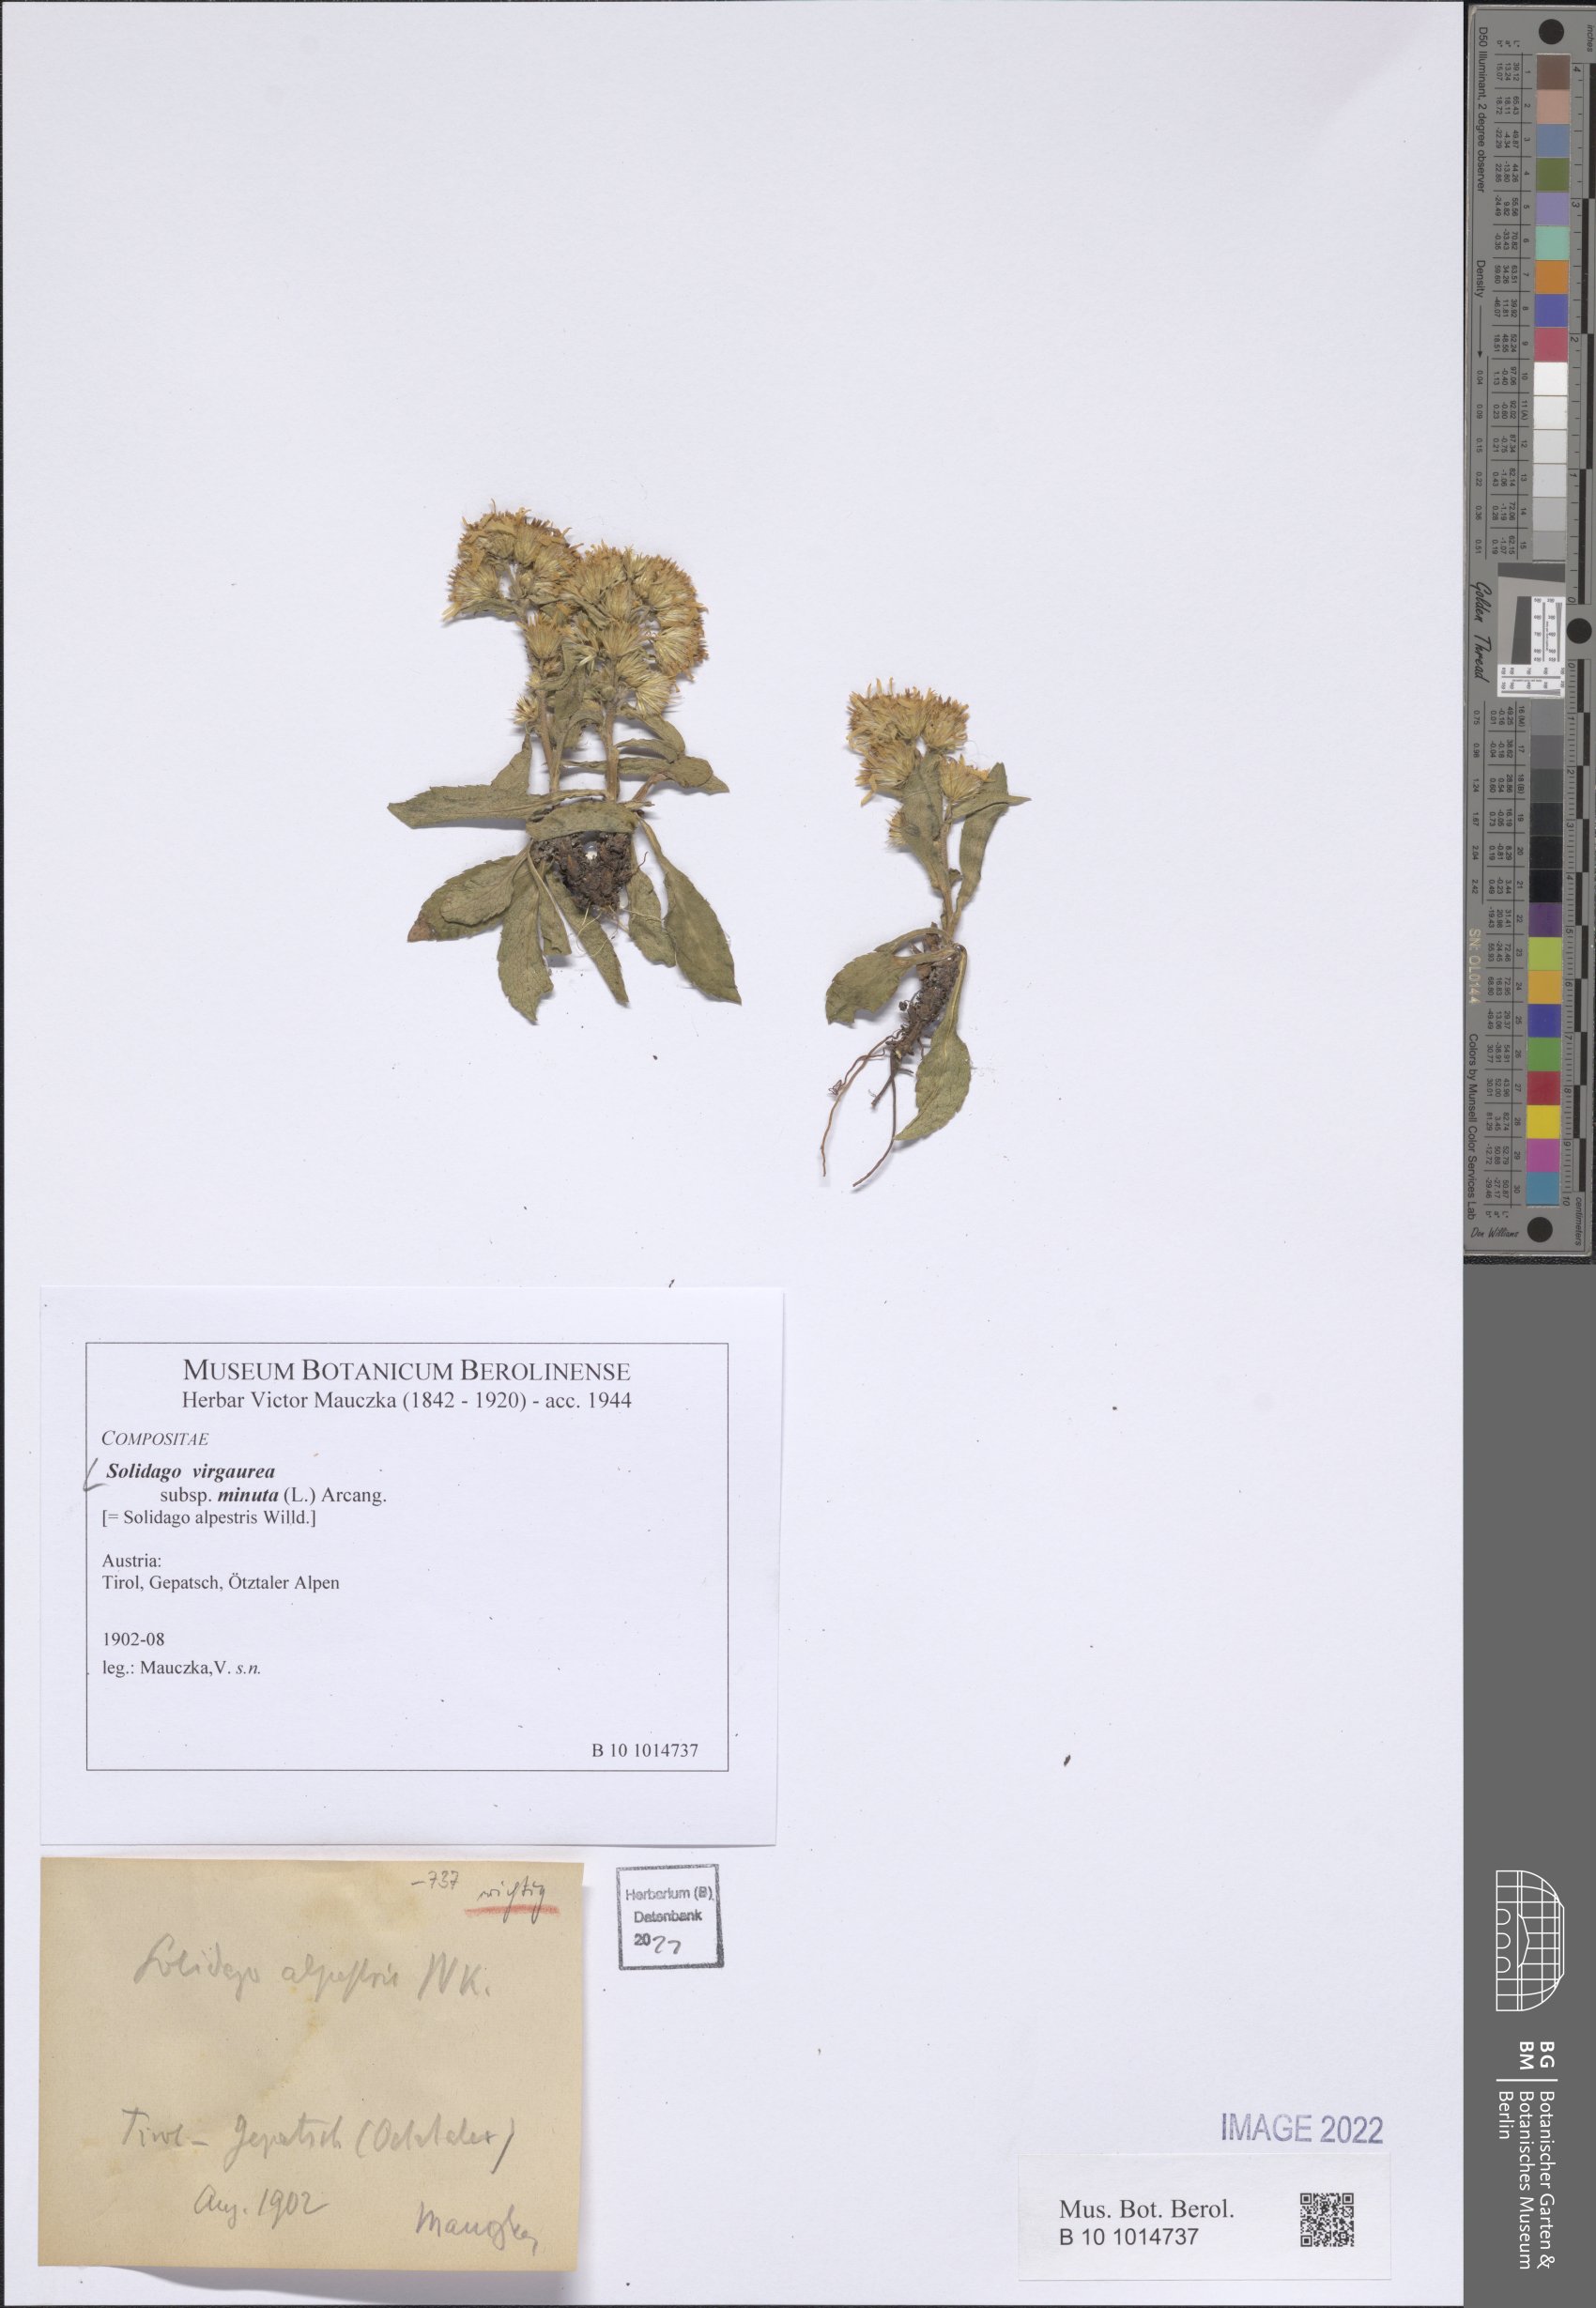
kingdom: Plantae
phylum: Tracheophyta
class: Magnoliopsida
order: Asterales
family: Asteraceae
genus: Solidago
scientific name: Solidago virgaurea
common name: Goldenrod
